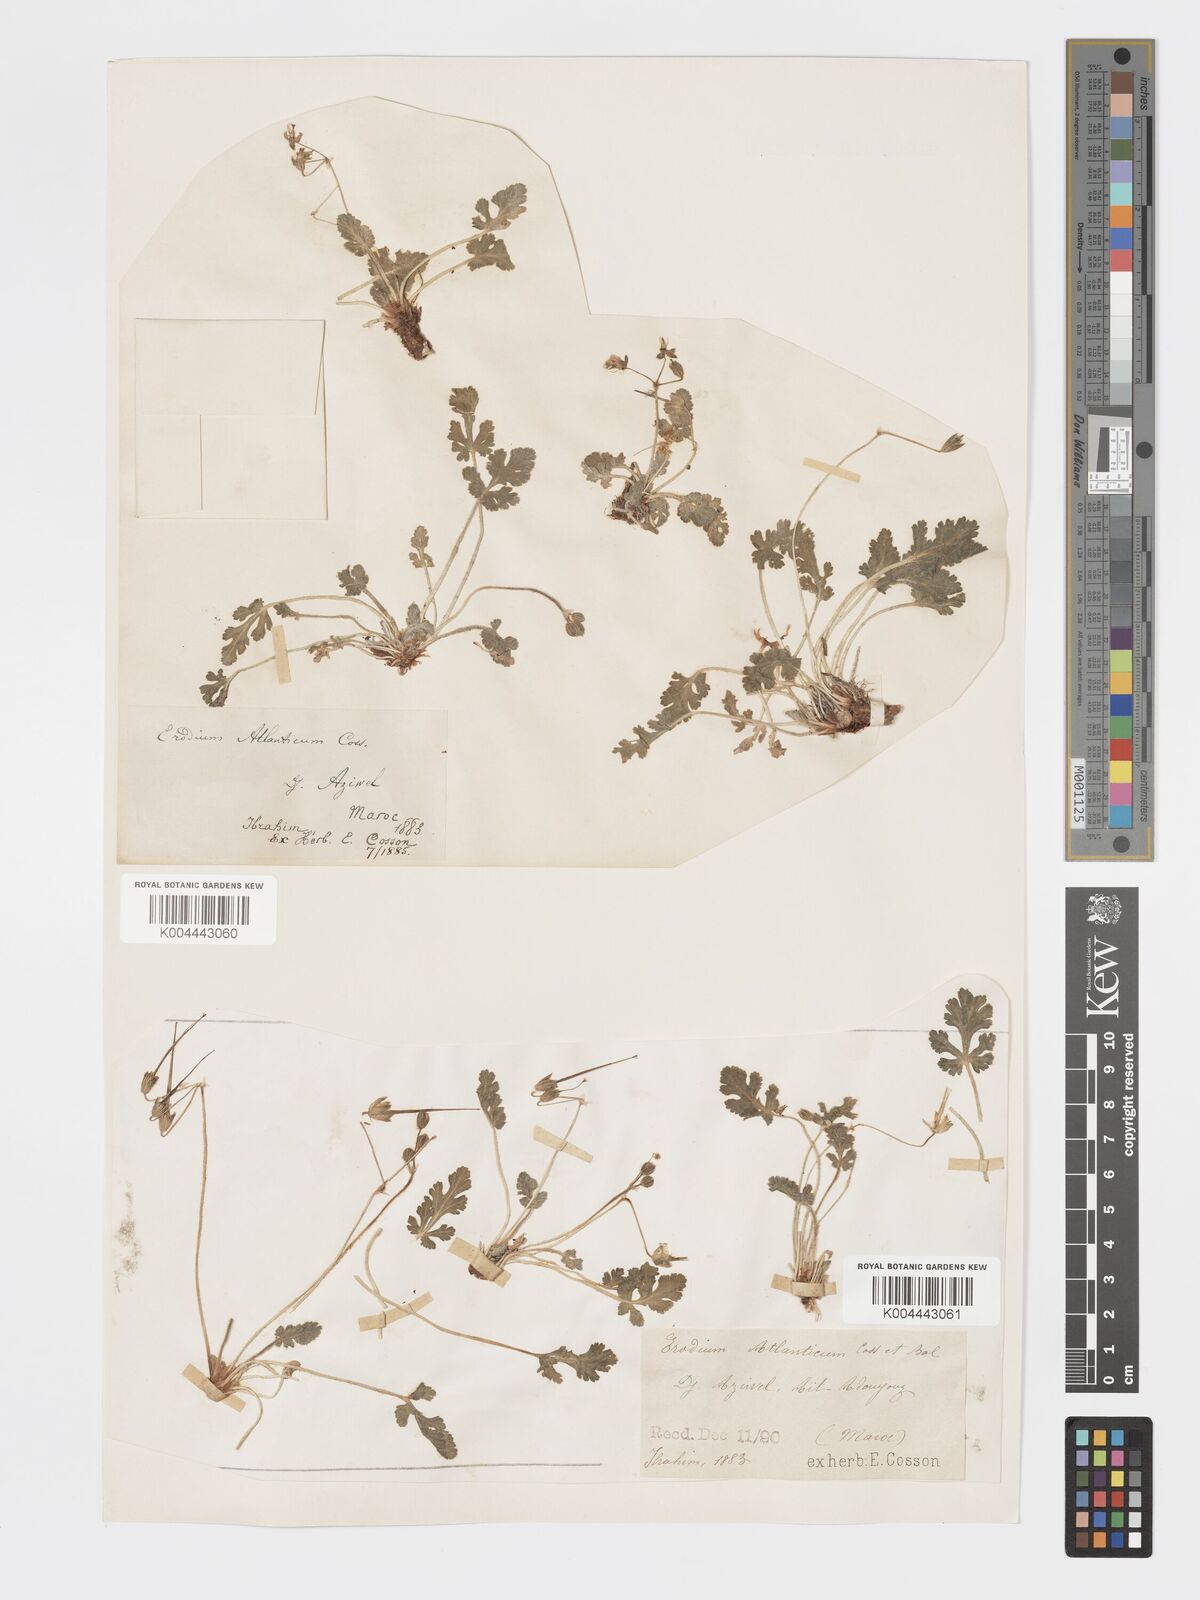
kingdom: Plantae
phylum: Tracheophyta
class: Magnoliopsida
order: Geraniales
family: Geraniaceae
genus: Erodium
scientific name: Erodium atlanticum
